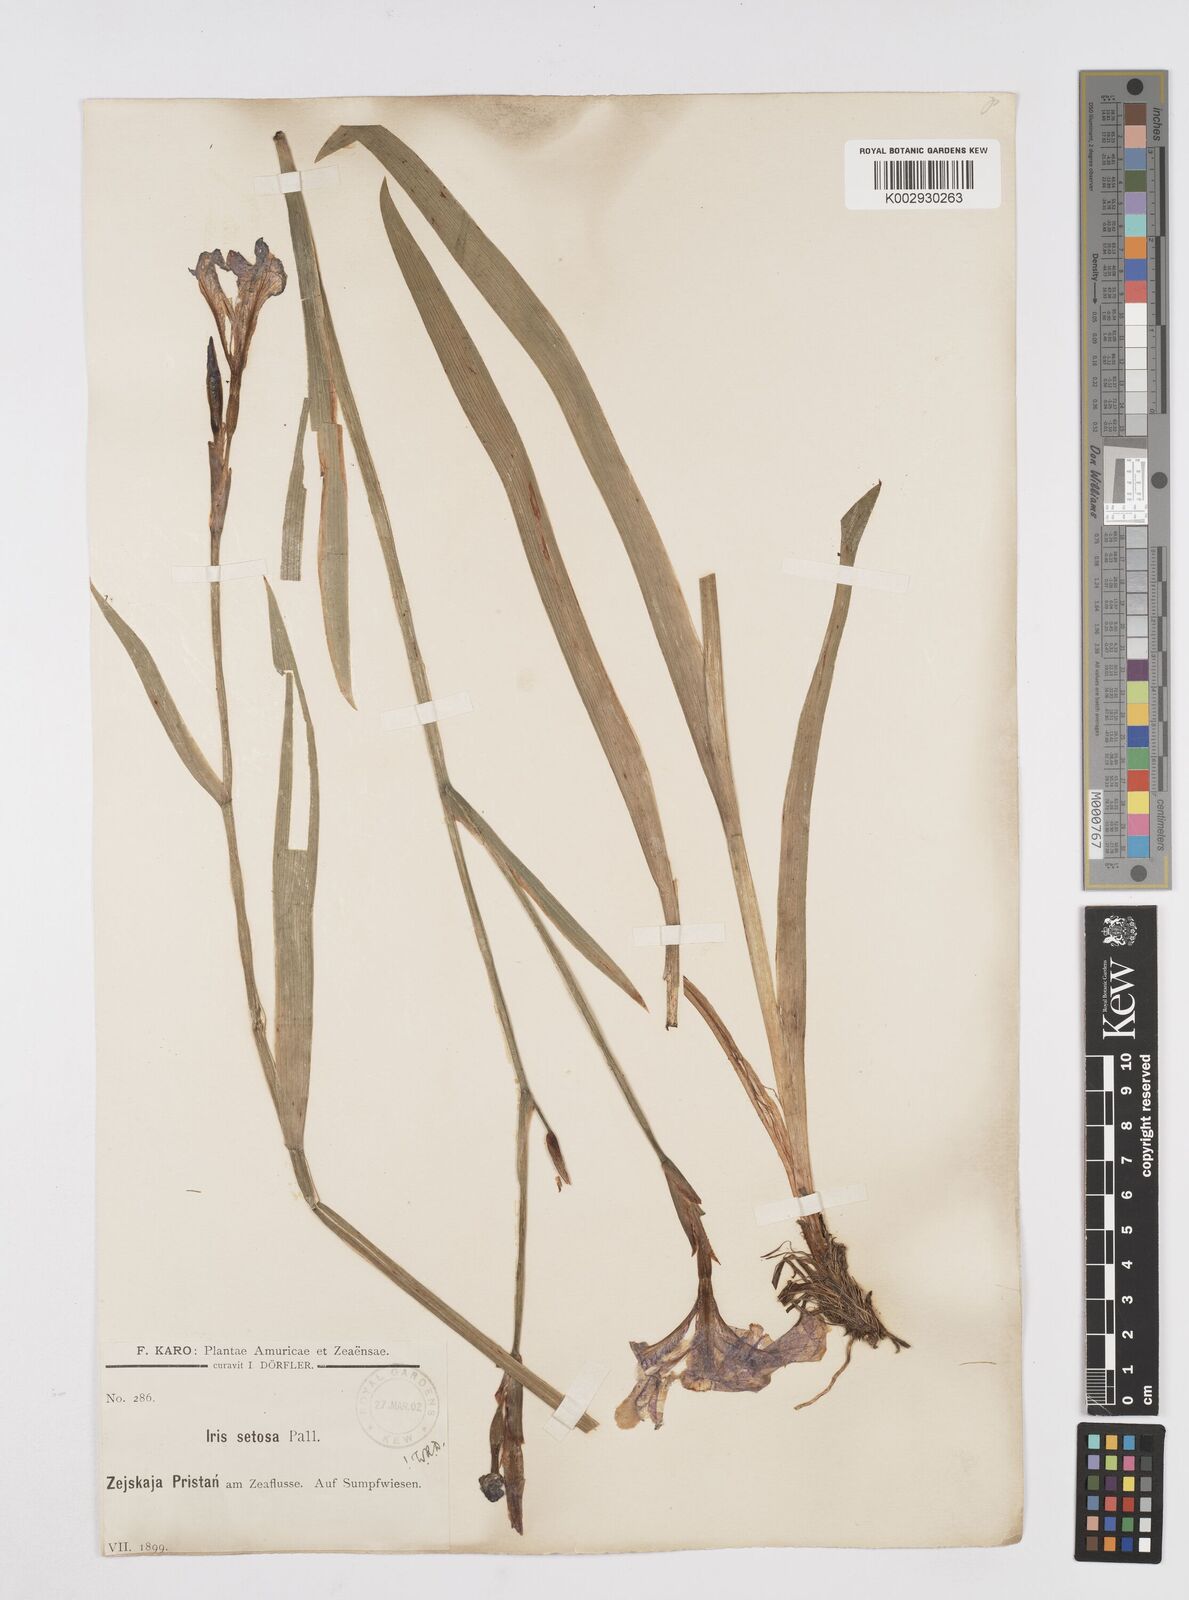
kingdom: Plantae
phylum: Tracheophyta
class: Liliopsida
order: Asparagales
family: Iridaceae
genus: Iris
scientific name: Iris setosa
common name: Arctic blue flag
